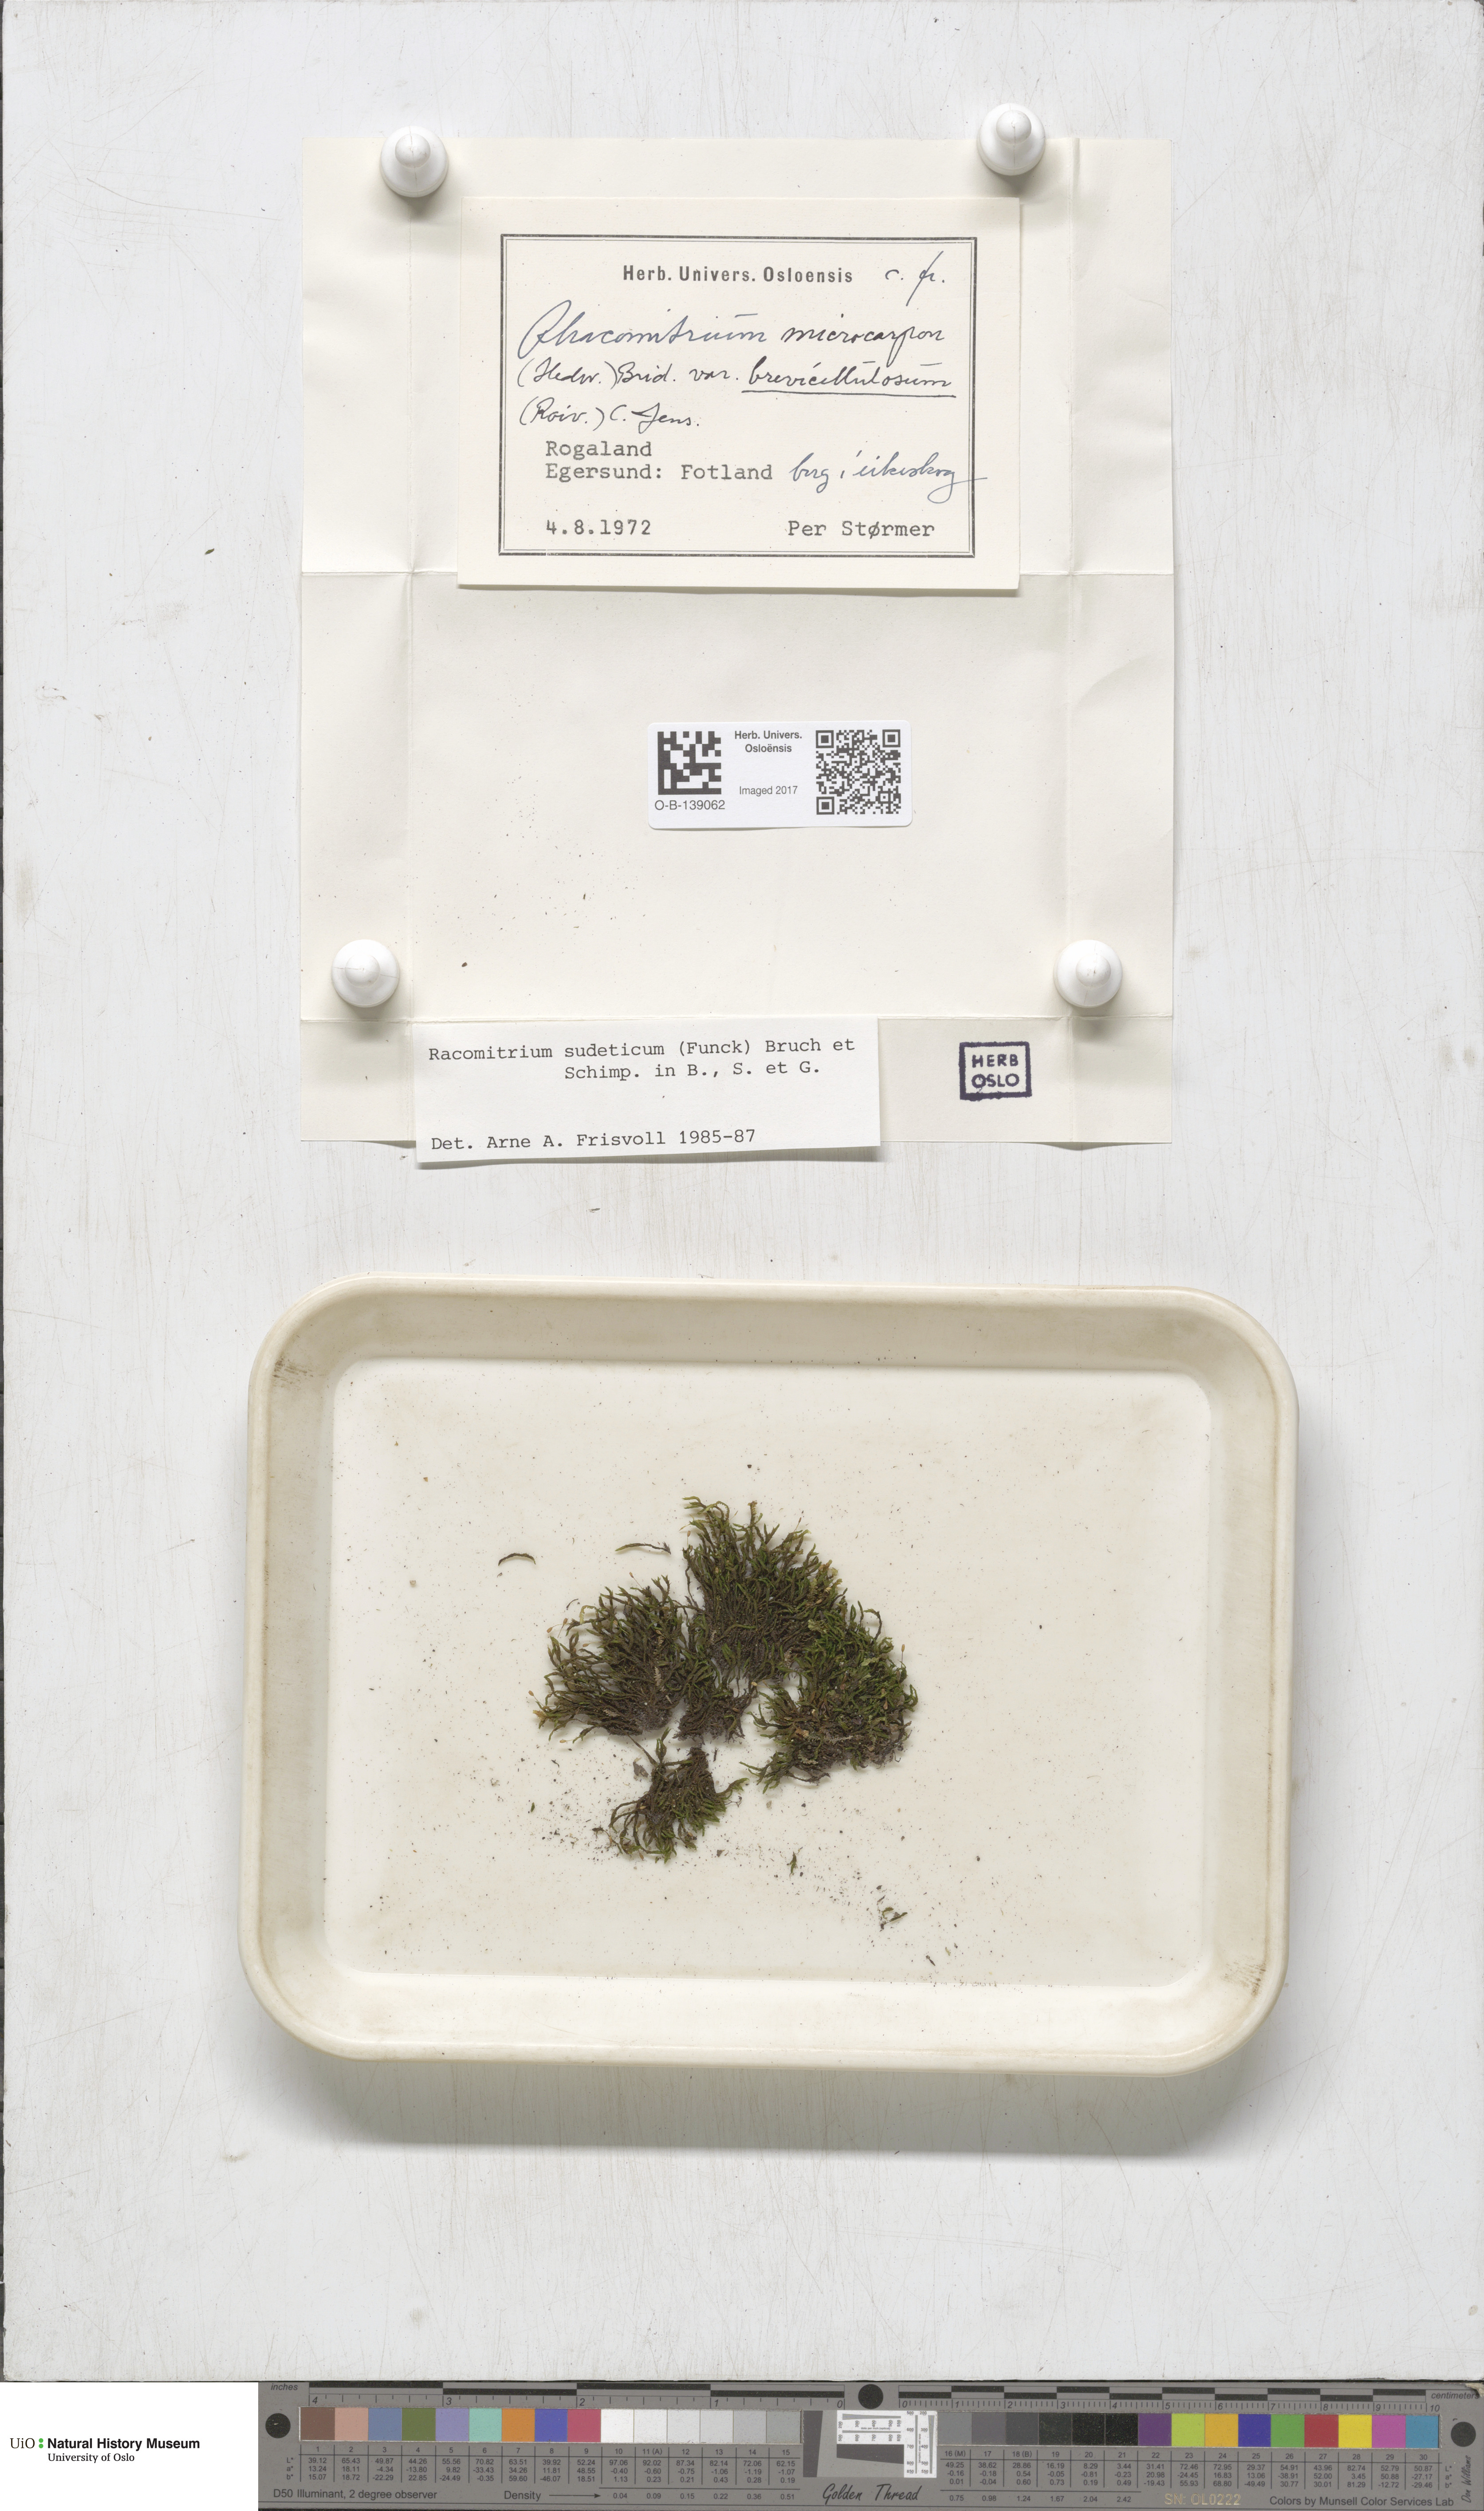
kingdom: Plantae
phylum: Bryophyta
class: Bryopsida
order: Grimmiales
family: Grimmiaceae
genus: Bucklandiella
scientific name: Bucklandiella sudetica
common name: Slender fringe-moss
